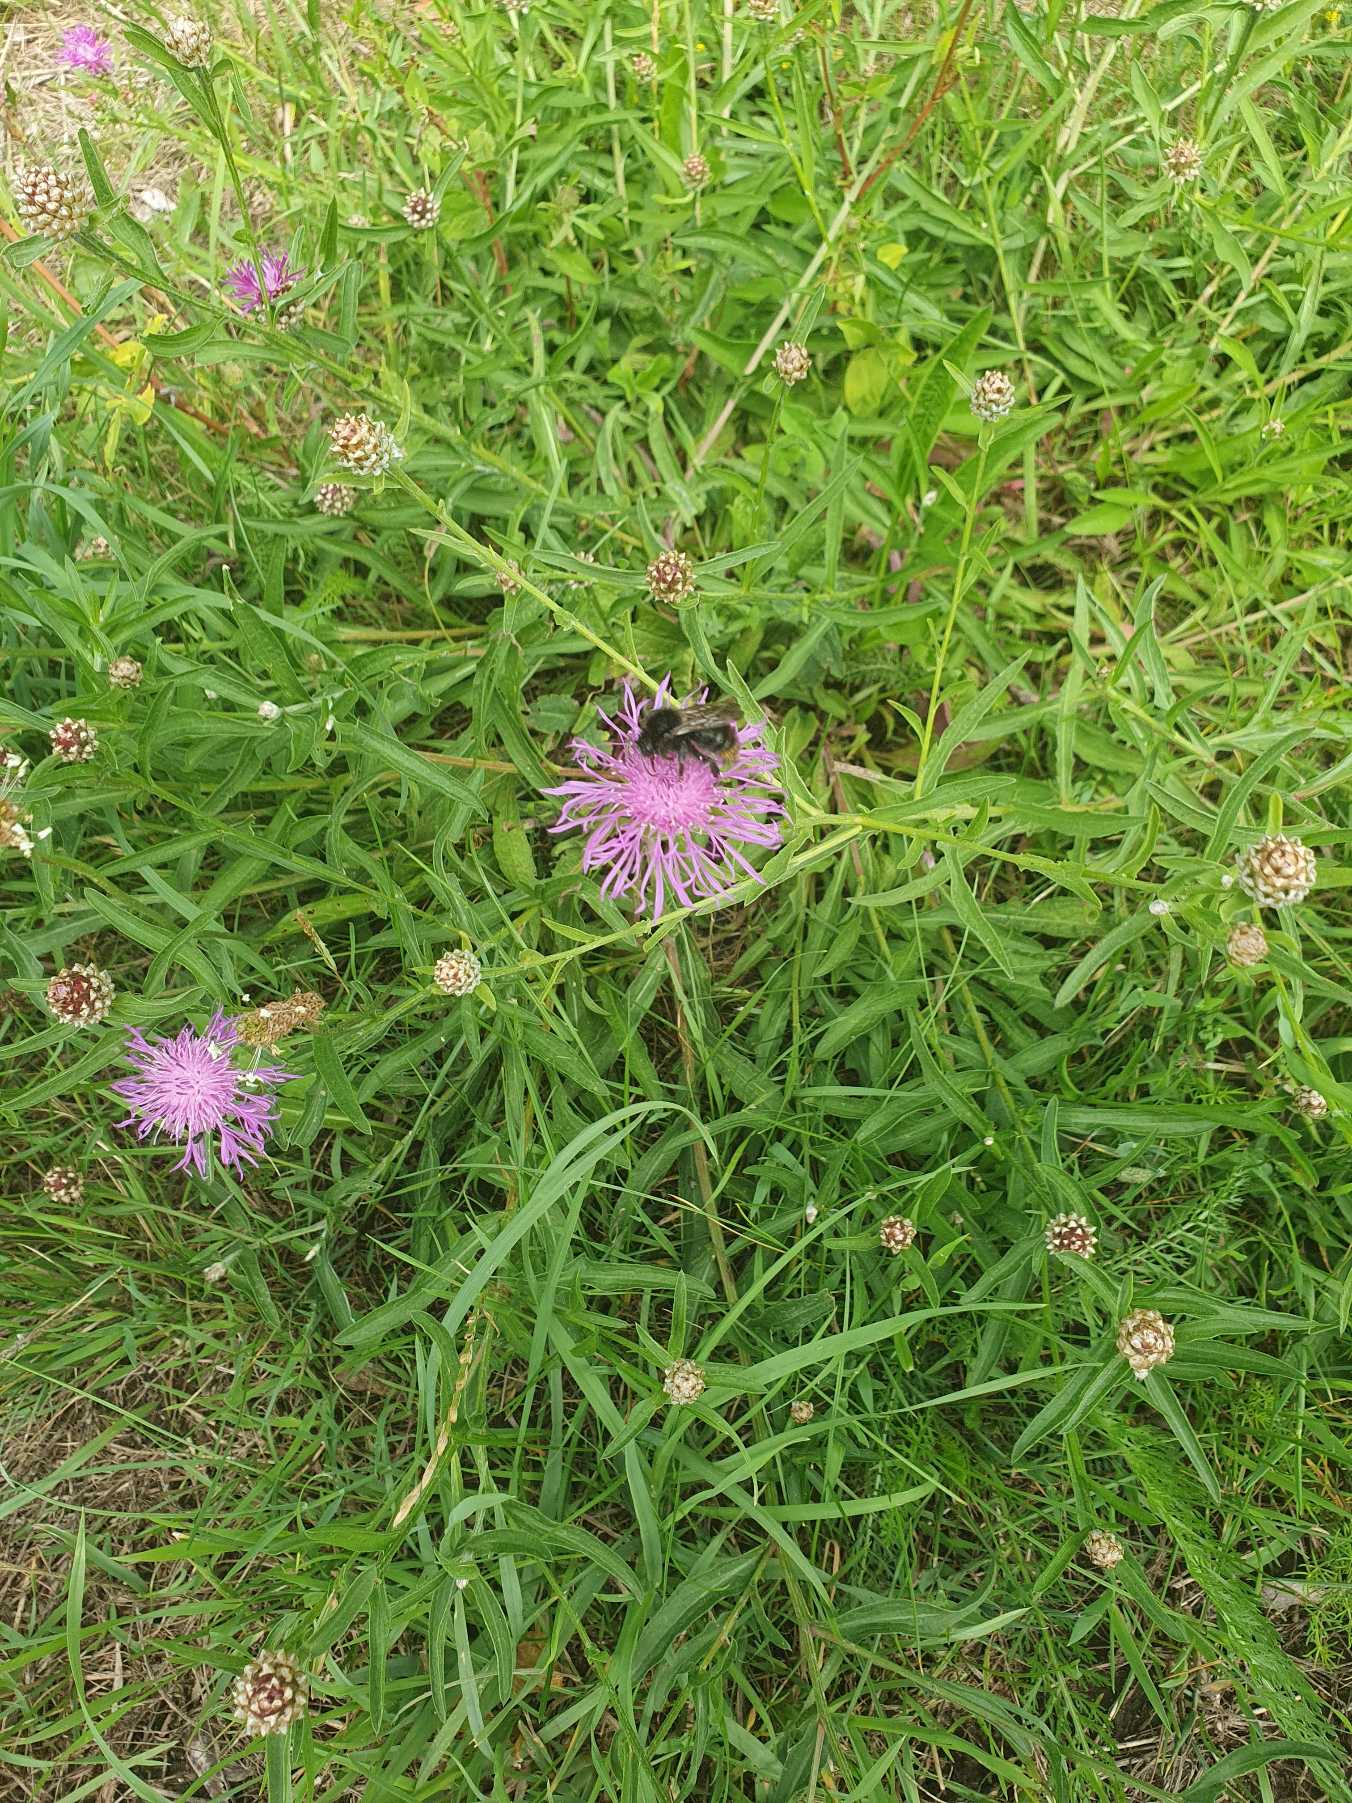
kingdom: Plantae
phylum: Tracheophyta
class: Magnoliopsida
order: Asterales
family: Asteraceae
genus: Centaurea
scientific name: Centaurea jacea
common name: Almindelig knopurt
